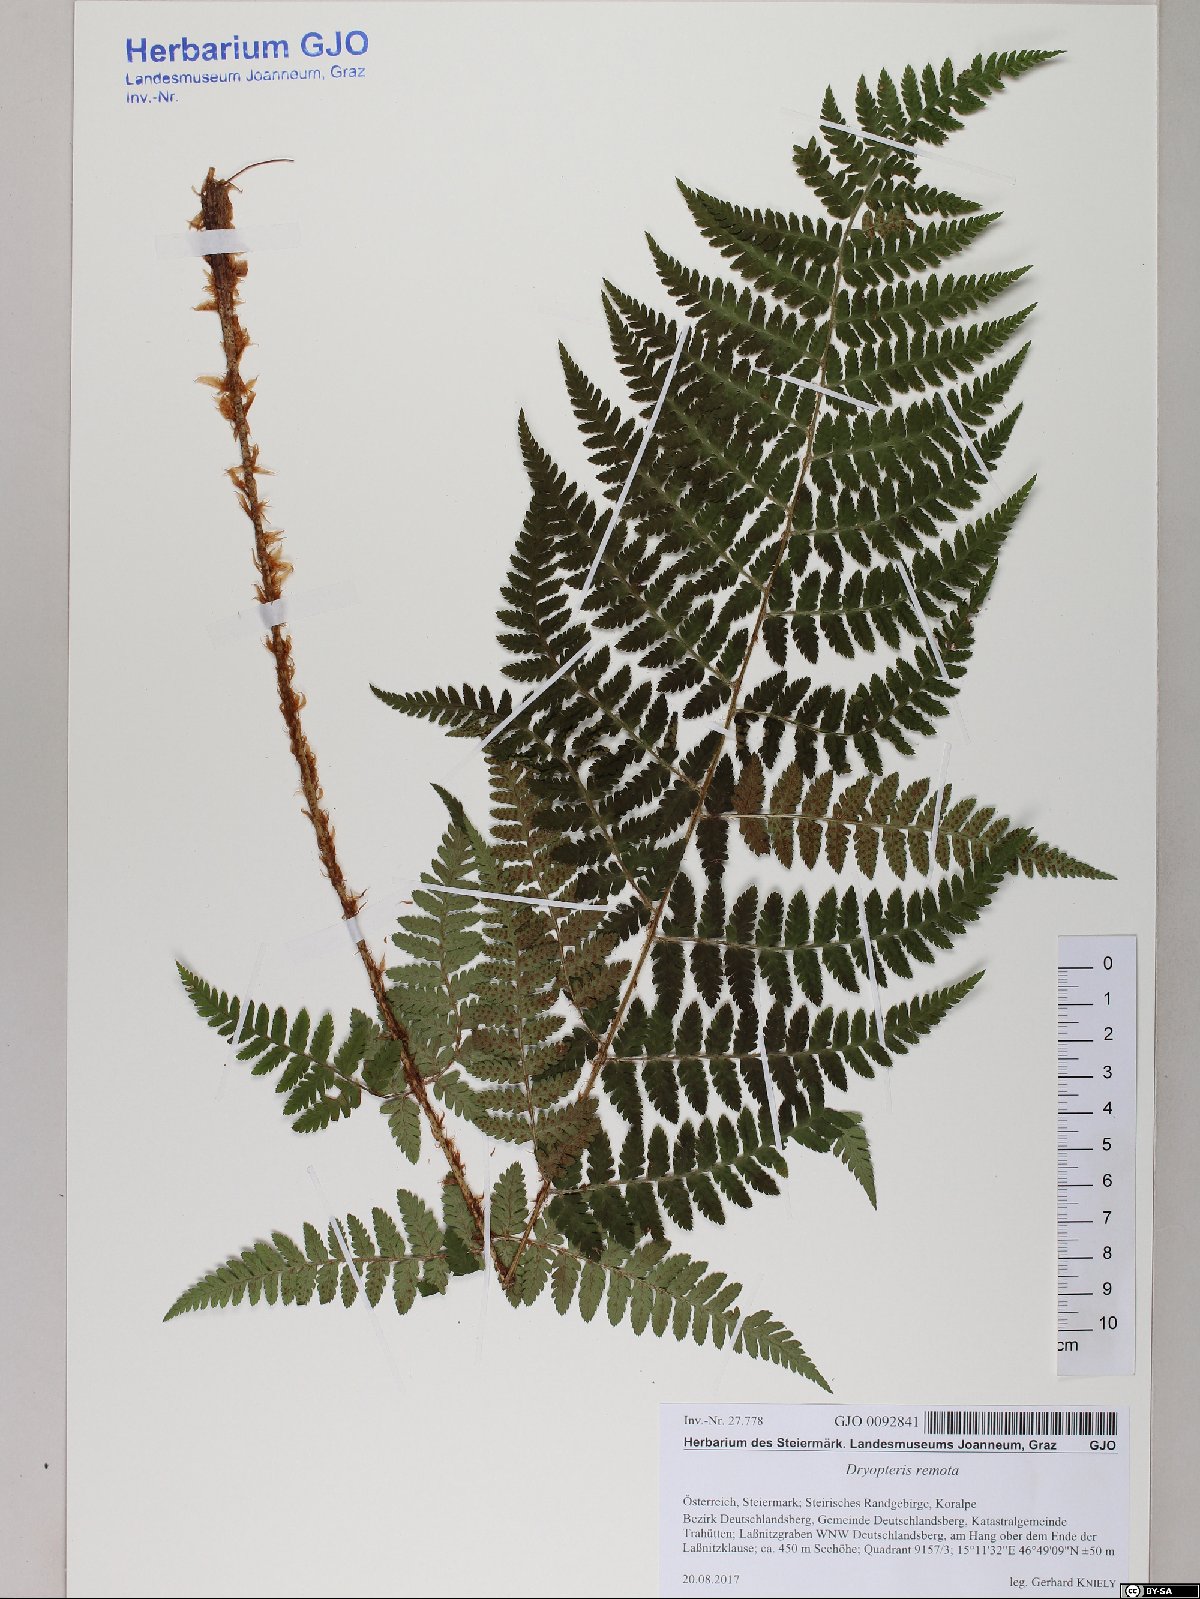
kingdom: Plantae
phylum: Tracheophyta
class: Polypodiopsida
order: Polypodiales
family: Dryopteridaceae
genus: Dryopteris
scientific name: Dryopteris remota
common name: Scaly buckler-fern
